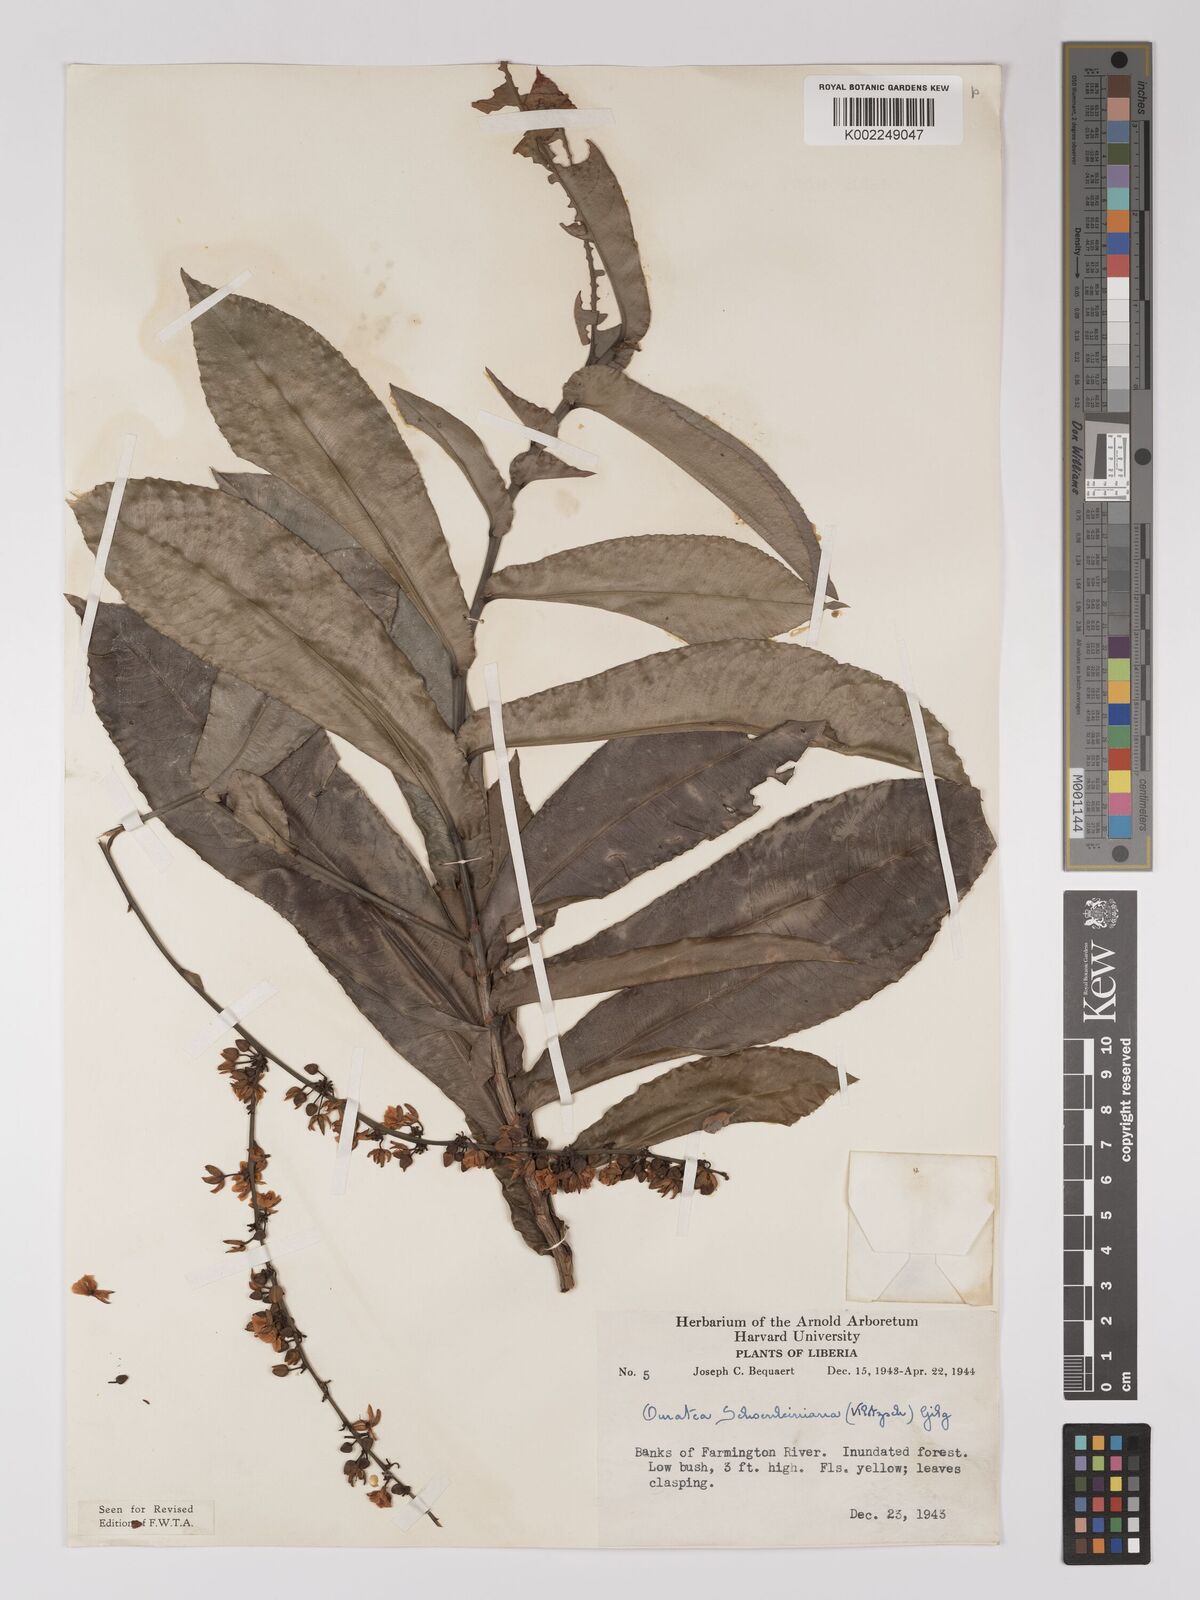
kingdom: Plantae
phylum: Tracheophyta
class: Magnoliopsida
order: Malpighiales
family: Ochnaceae
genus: Campylospermum
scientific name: Campylospermum schoenleinianum
